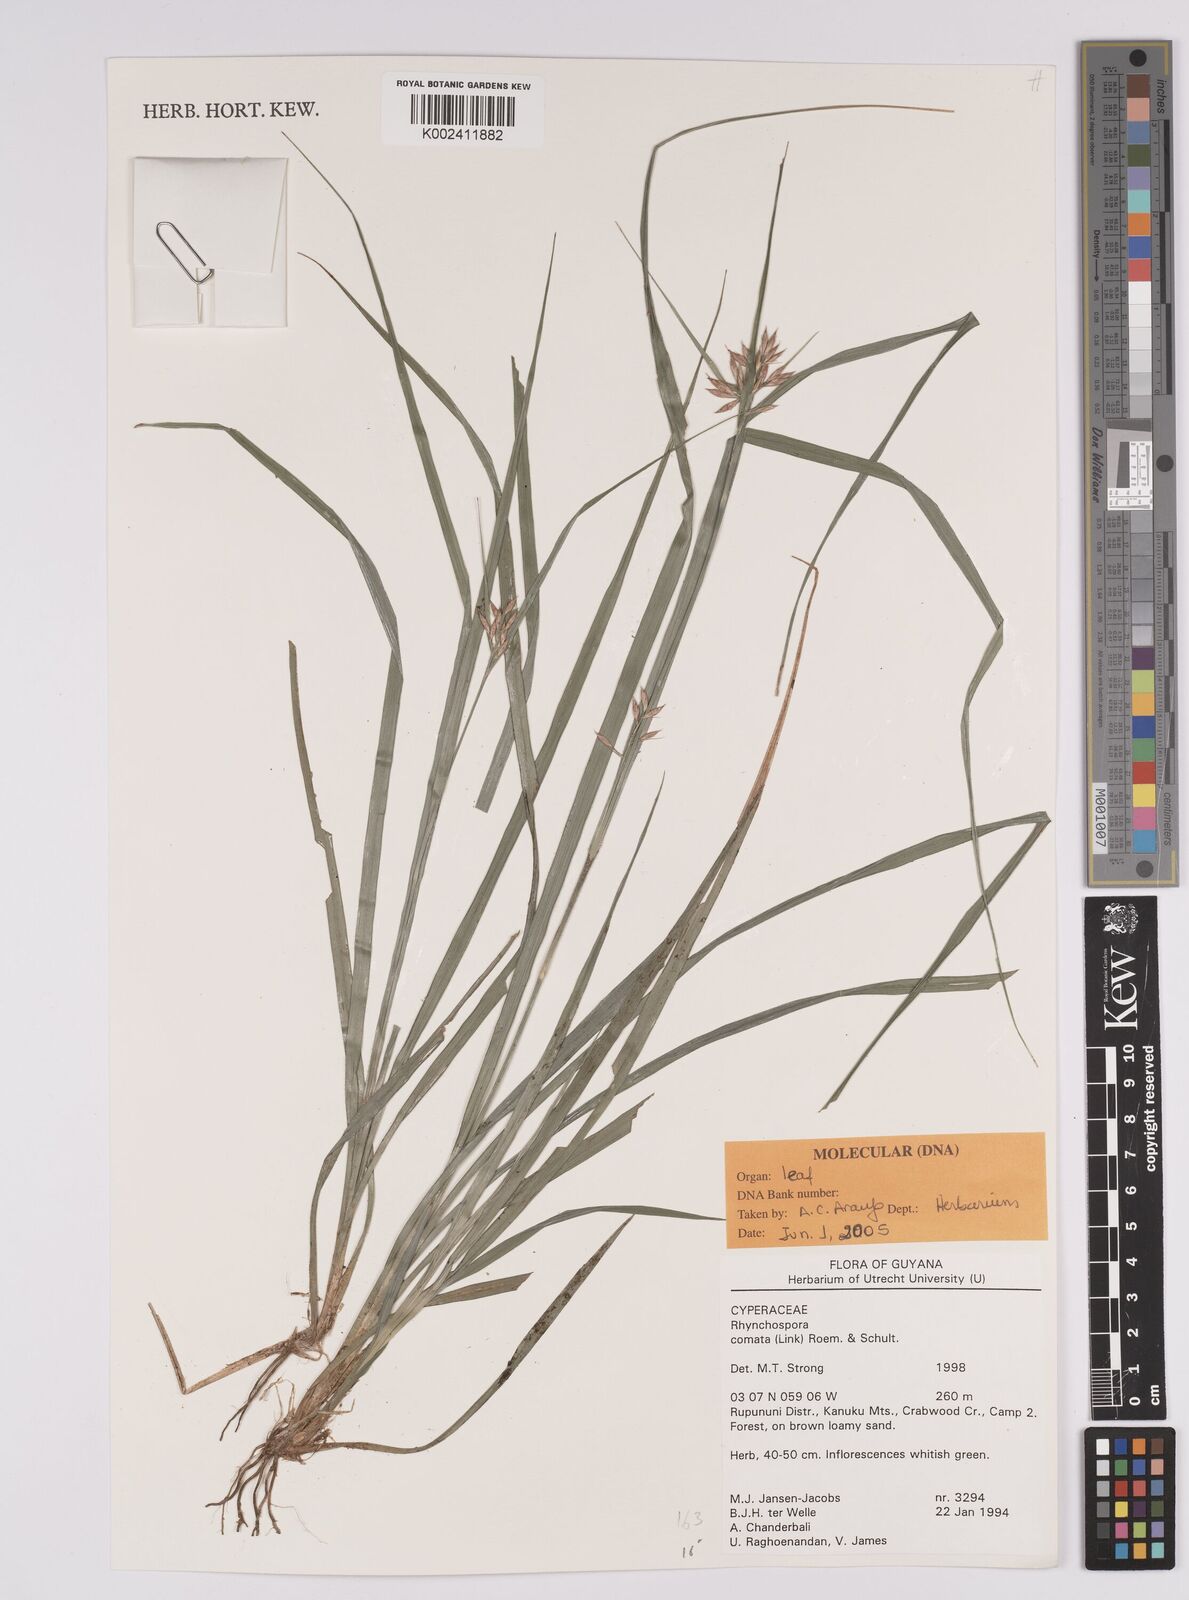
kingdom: Plantae
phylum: Tracheophyta
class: Liliopsida
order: Poales
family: Cyperaceae
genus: Rhynchospora
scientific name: Rhynchospora comata
